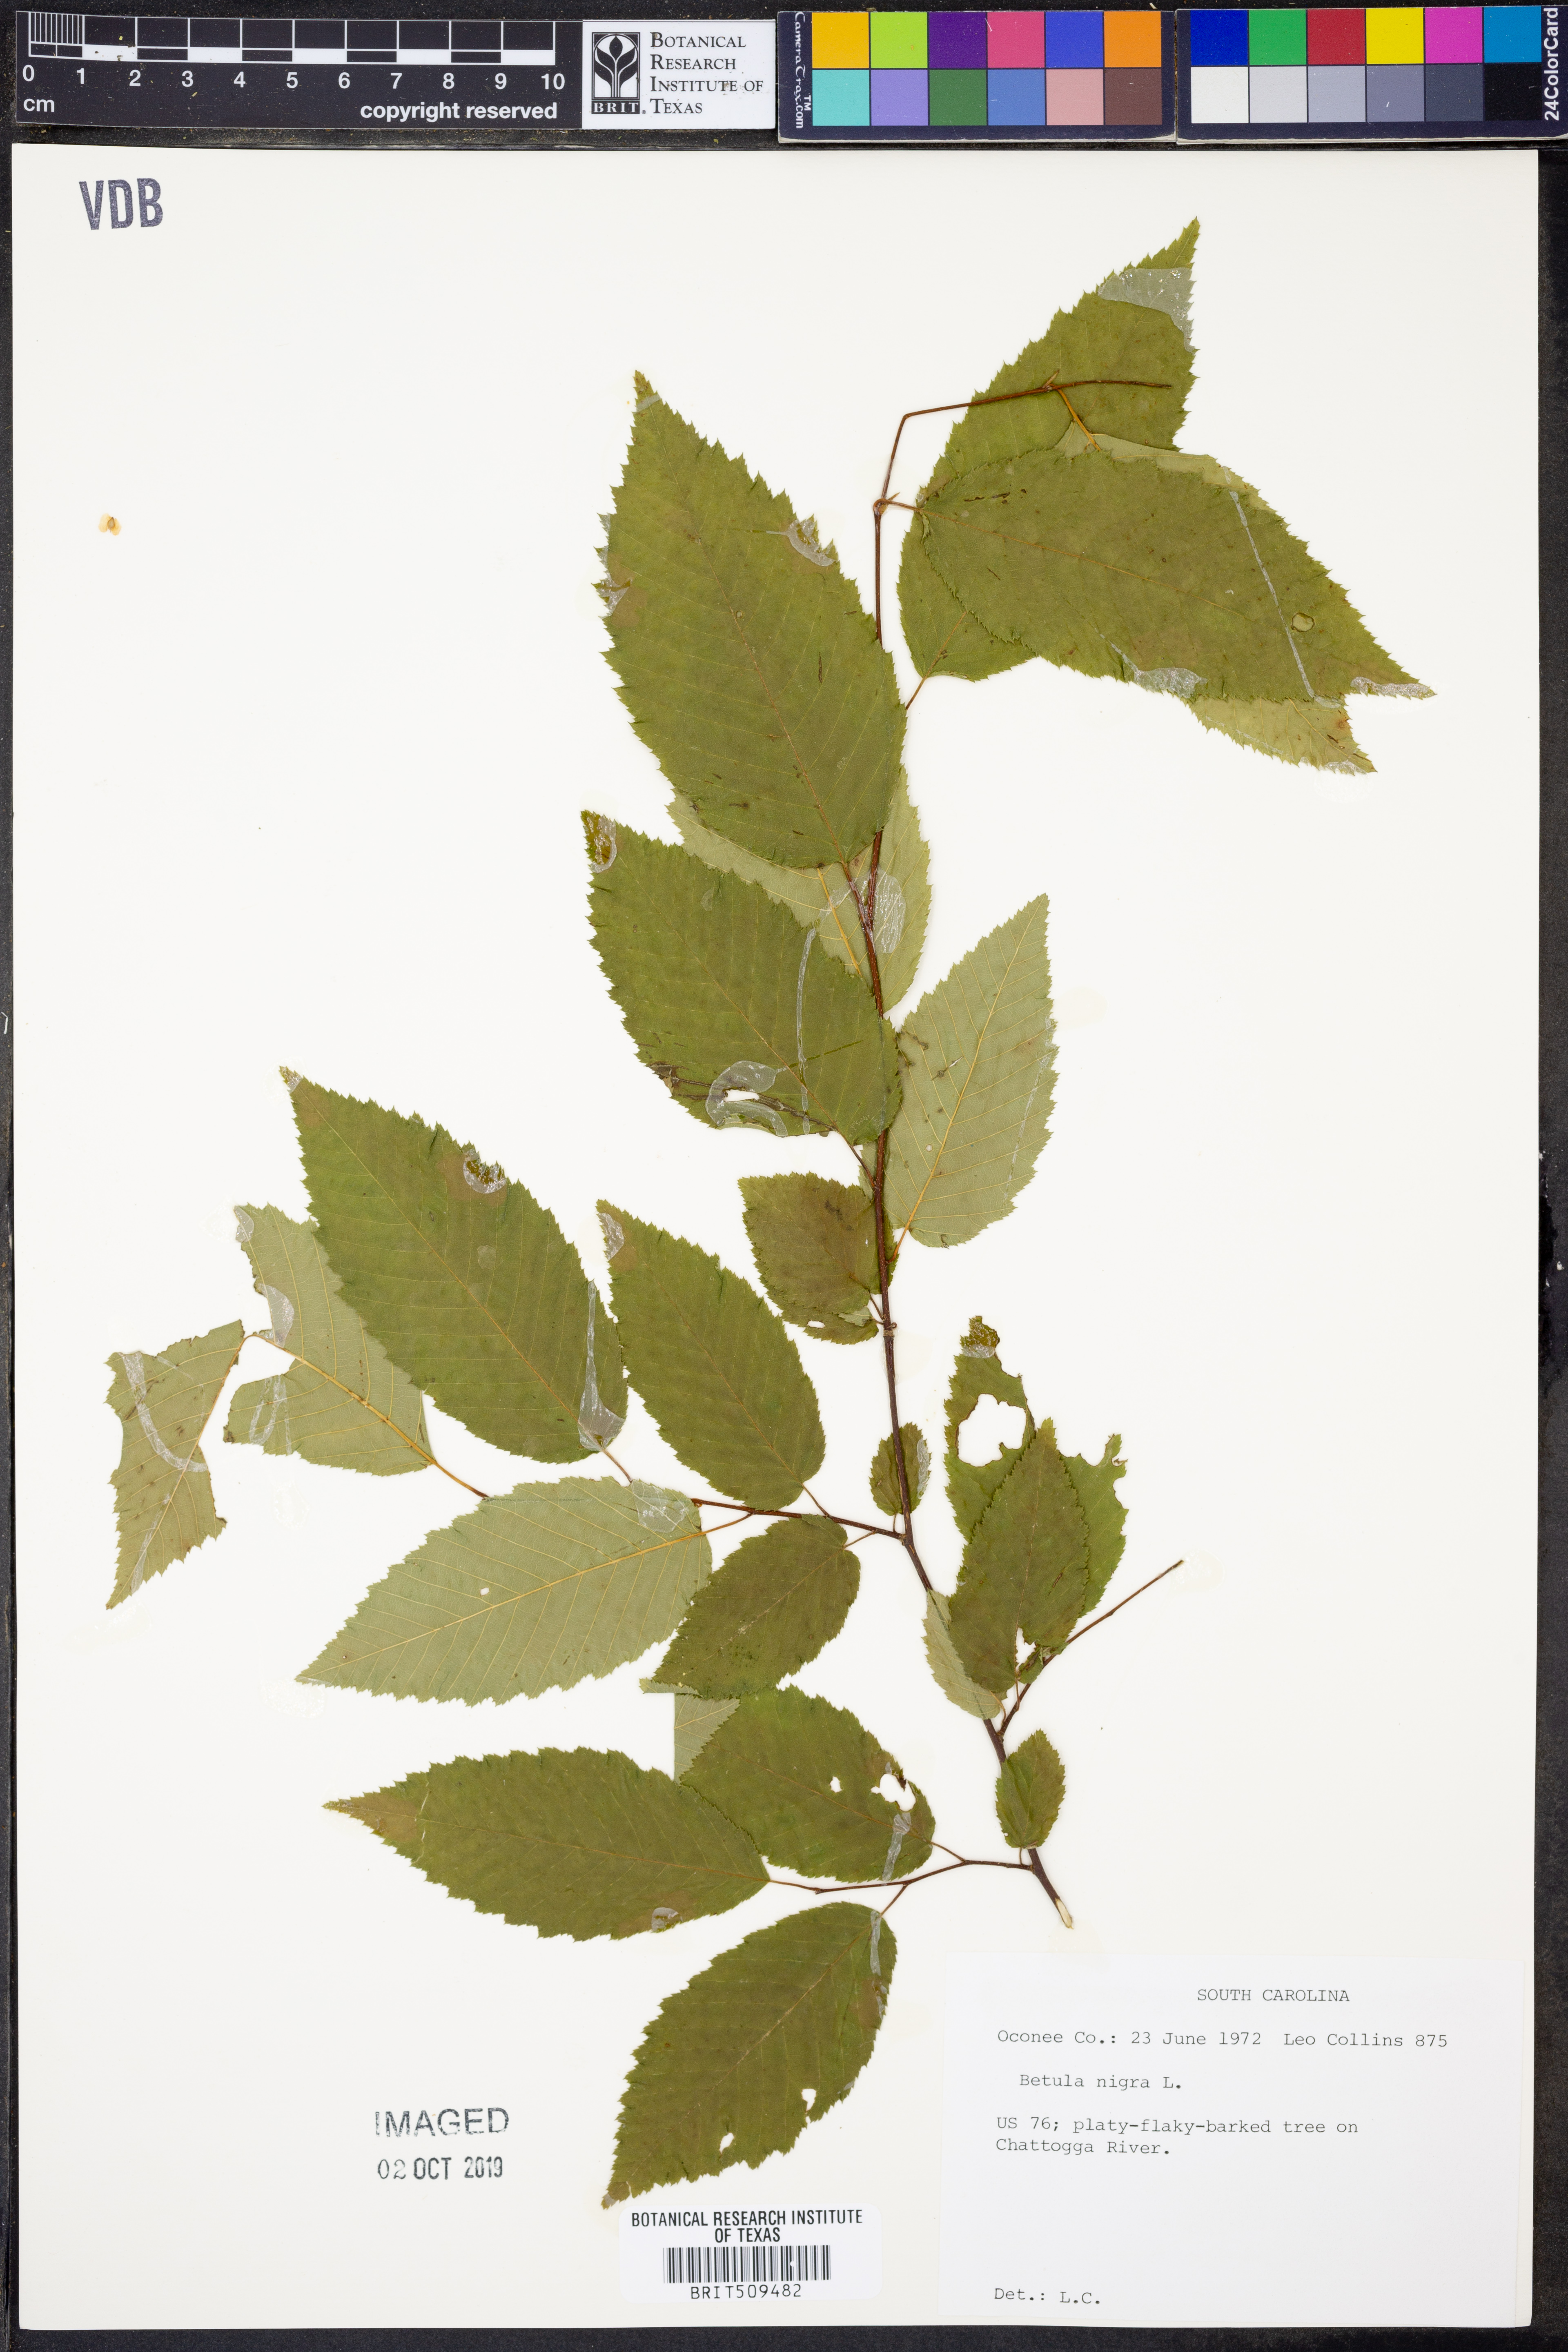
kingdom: Plantae
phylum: Tracheophyta
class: Magnoliopsida
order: Fagales
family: Betulaceae
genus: Betula
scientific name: Betula nigra
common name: Black birch
